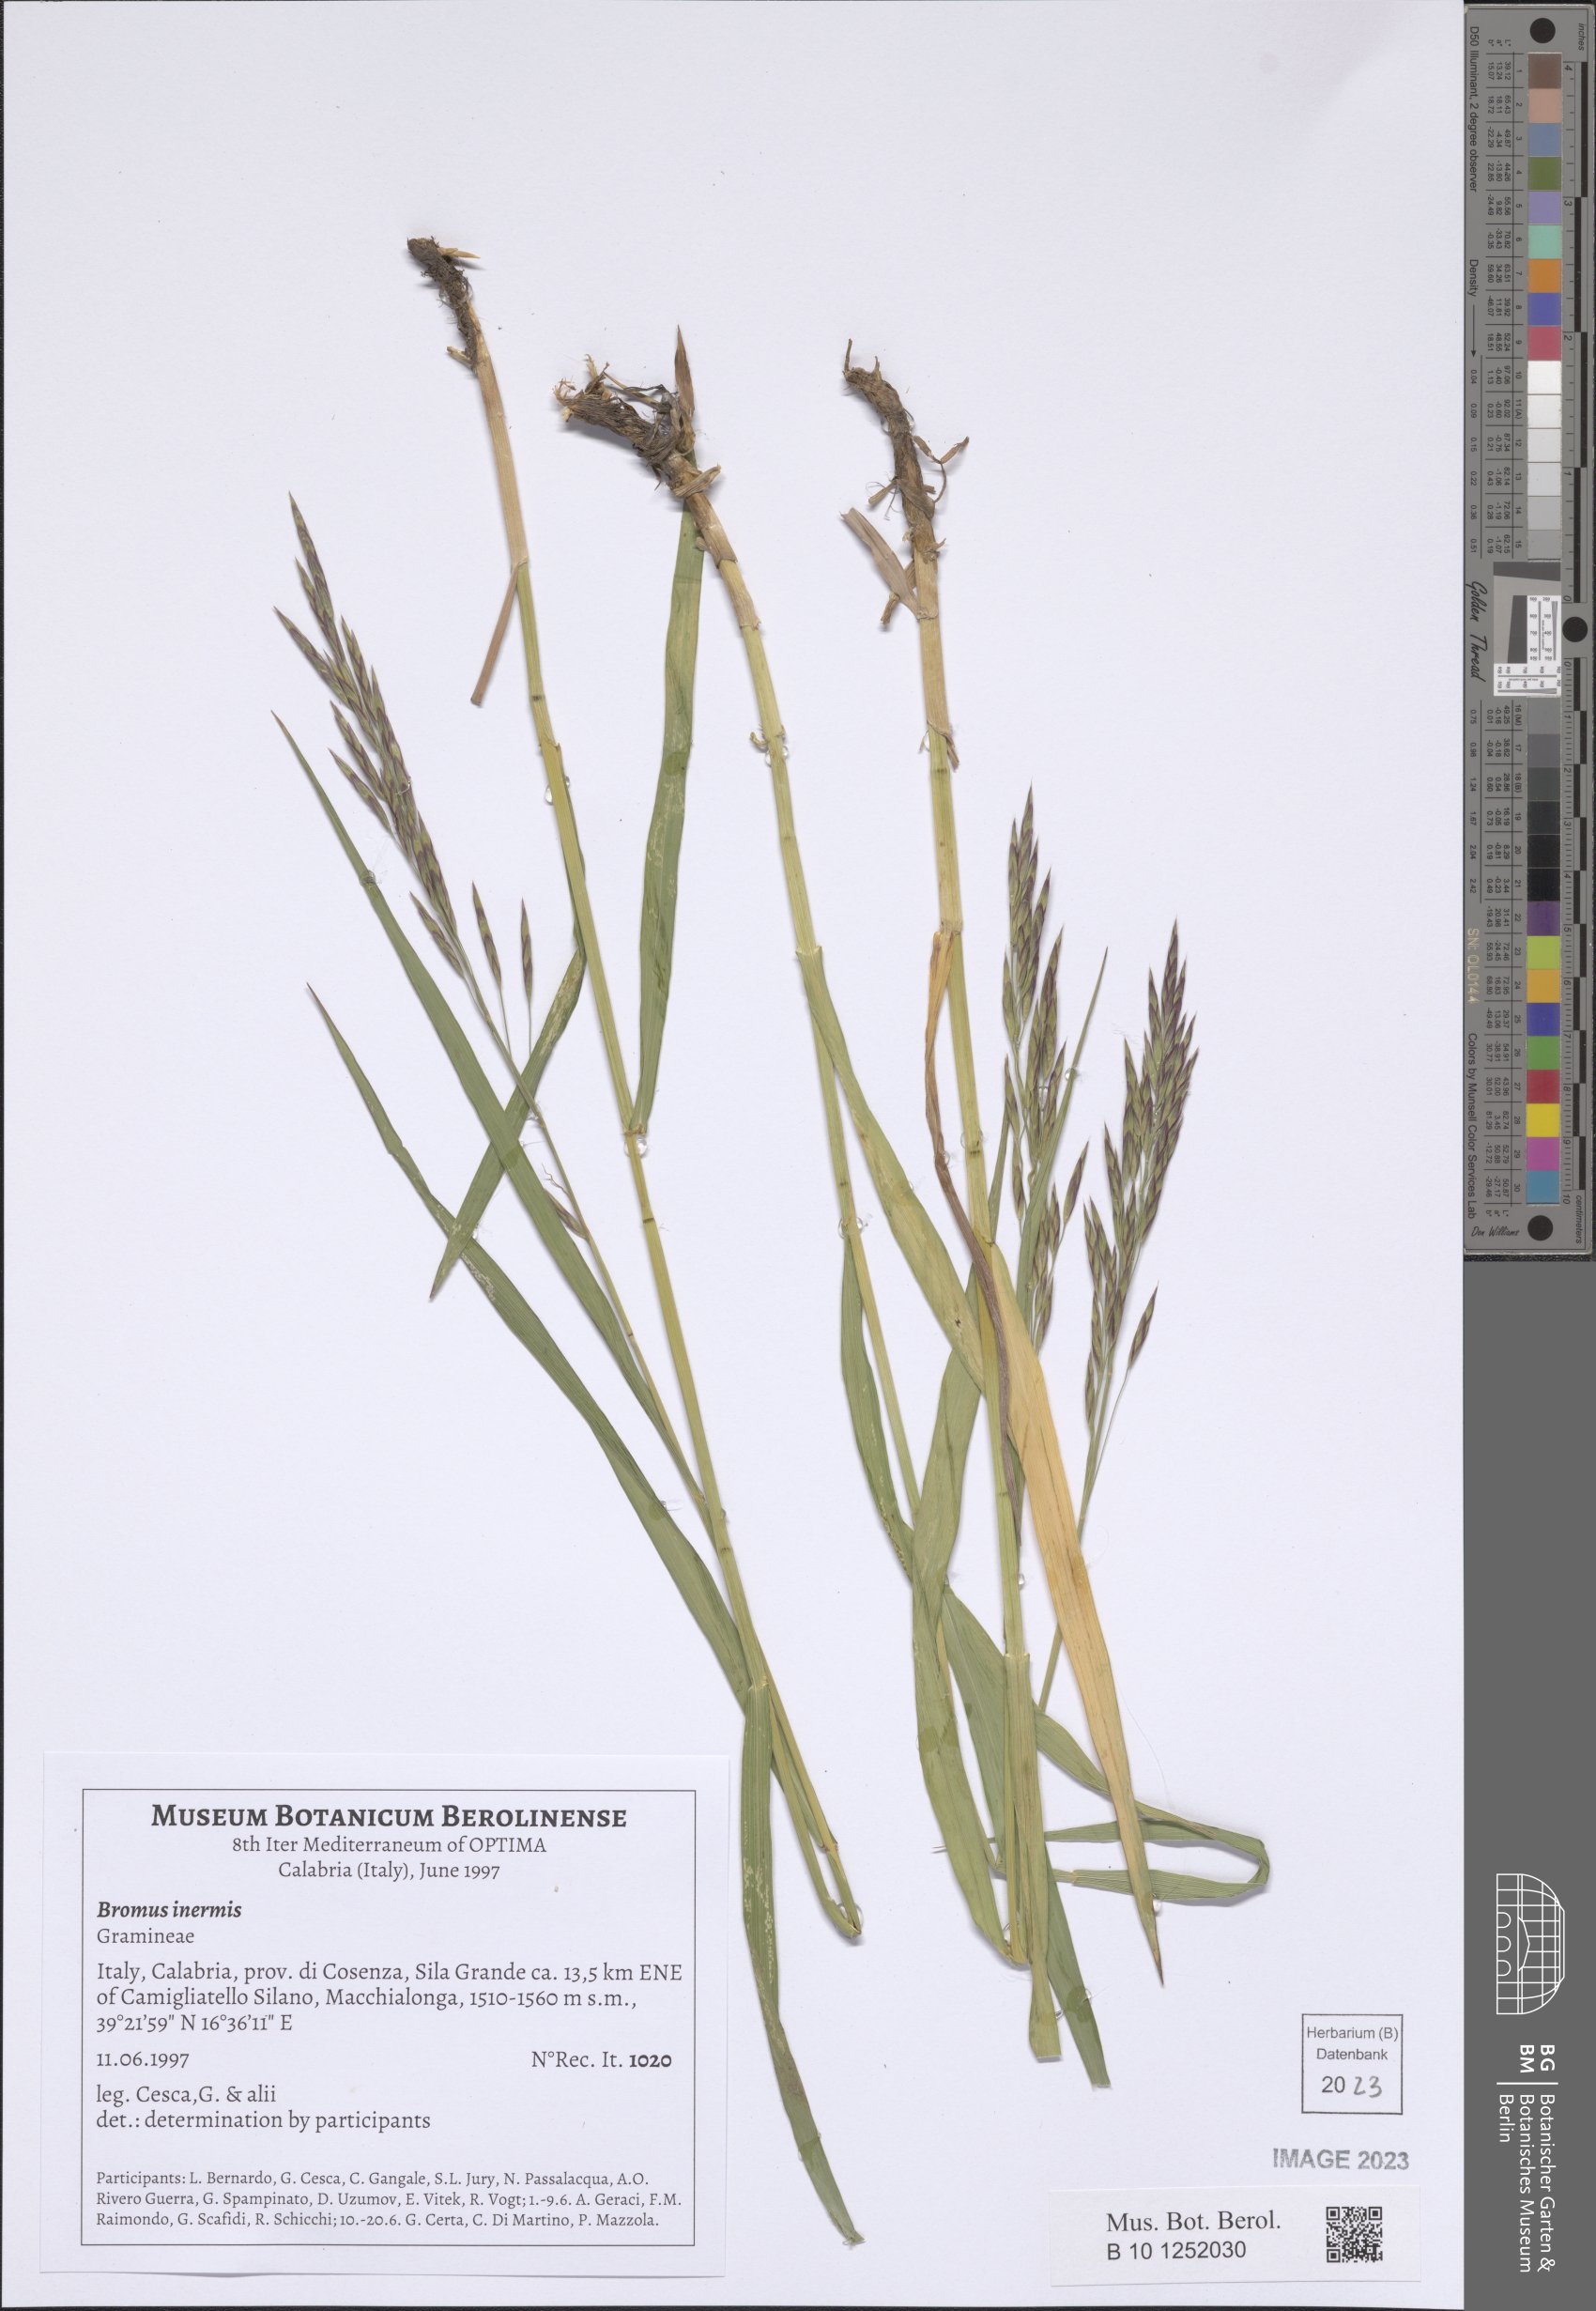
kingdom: Plantae
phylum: Tracheophyta
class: Liliopsida
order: Poales
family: Poaceae
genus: Bromus
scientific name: Bromus inermis
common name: Smooth brome
